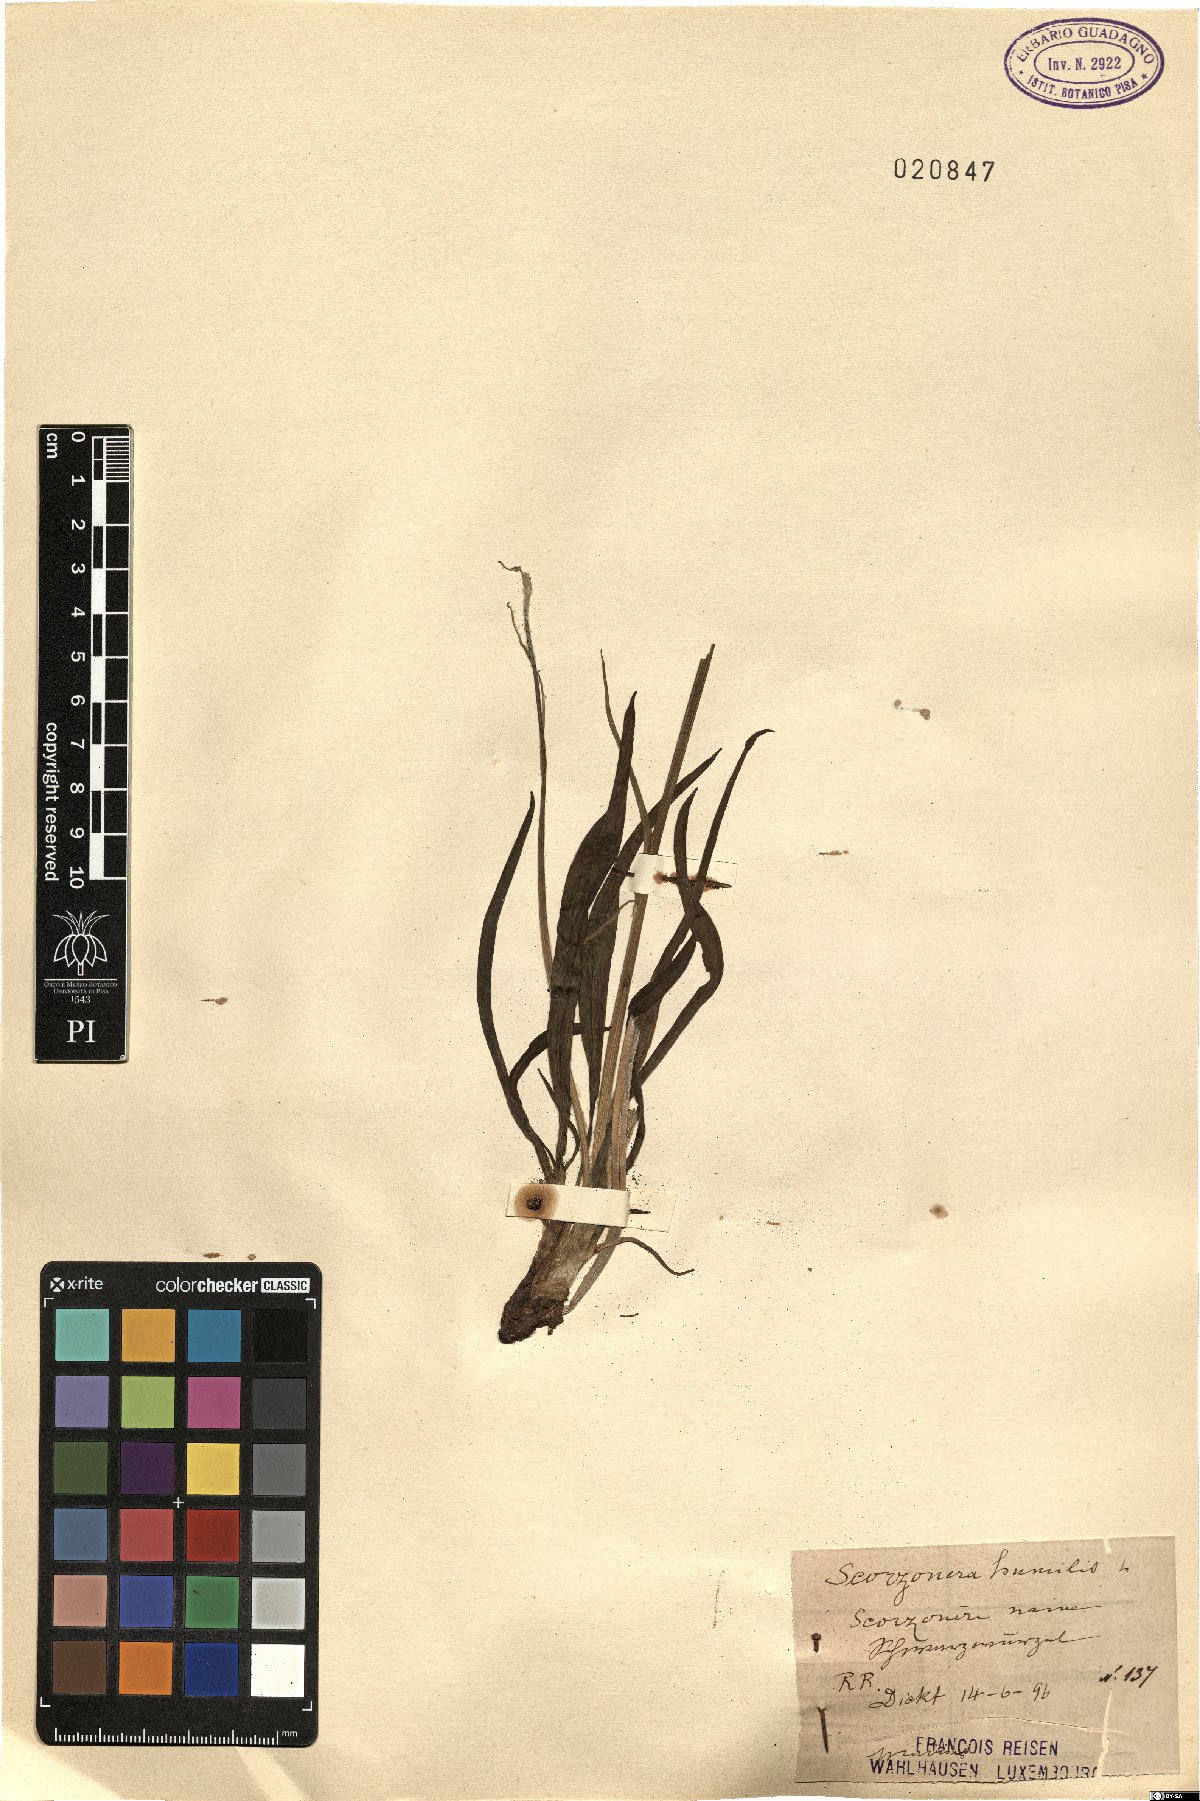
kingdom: Plantae
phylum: Tracheophyta
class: Magnoliopsida
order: Asterales
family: Asteraceae
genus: Scorzonera
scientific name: Scorzonera humilis
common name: Viper's-grass
